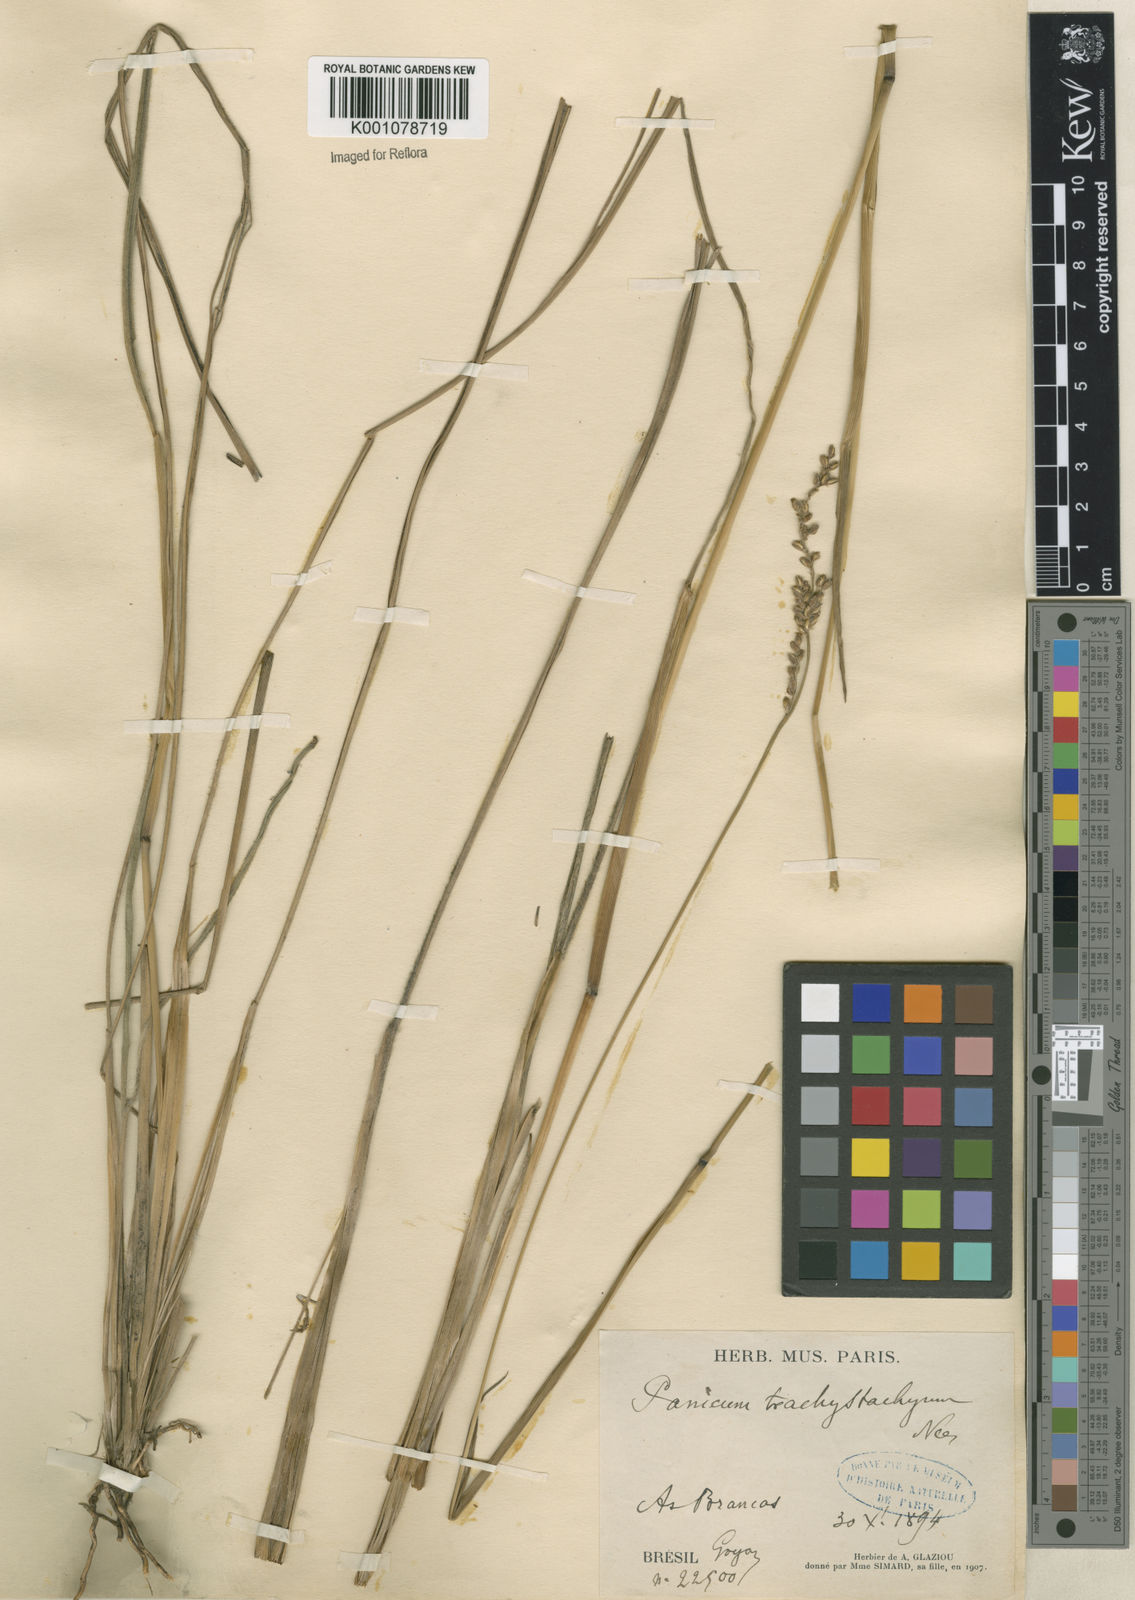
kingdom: Plantae
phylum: Tracheophyta
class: Liliopsida
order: Poales
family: Poaceae
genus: Anthaenantiopsis
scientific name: Anthaenantiopsis perforata
